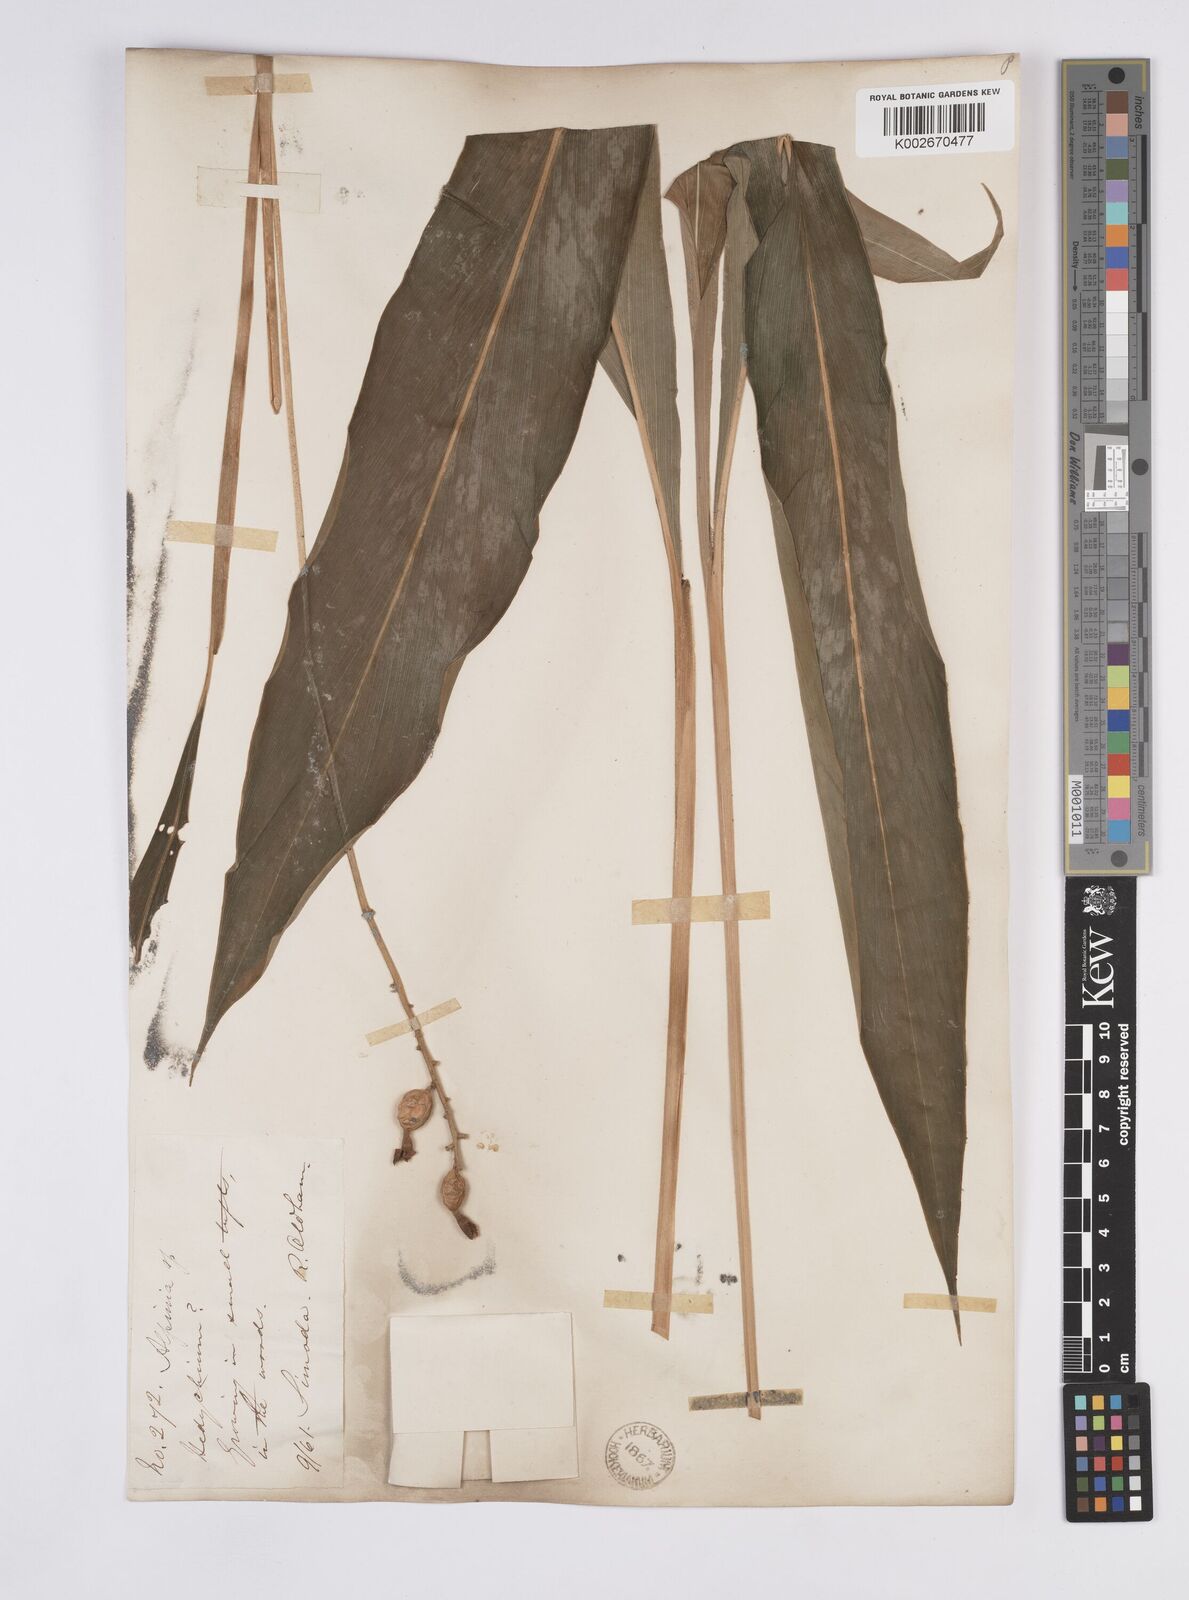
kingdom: Plantae
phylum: Tracheophyta
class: Liliopsida
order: Zingiberales
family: Zingiberaceae
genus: Alpinia
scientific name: Alpinia japonica
